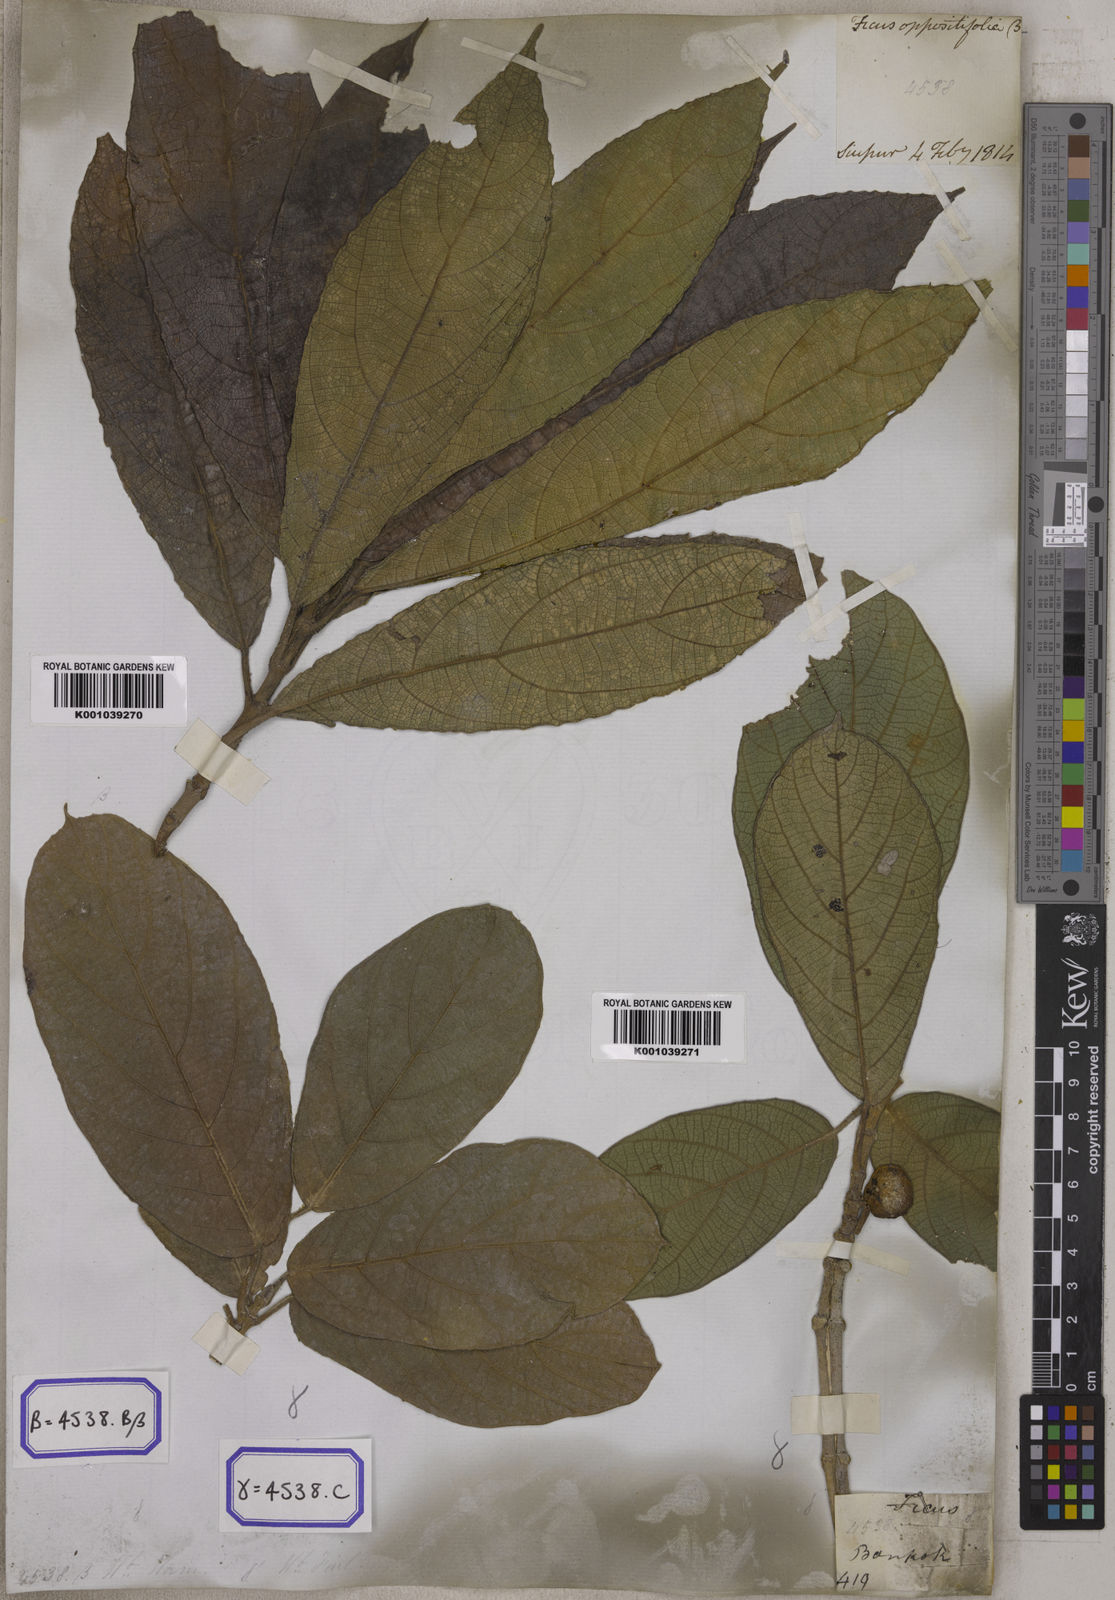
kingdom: Plantae
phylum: Tracheophyta
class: Magnoliopsida
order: Rosales
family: Moraceae
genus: Ficus
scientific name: Ficus hispida
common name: Hairy fig
